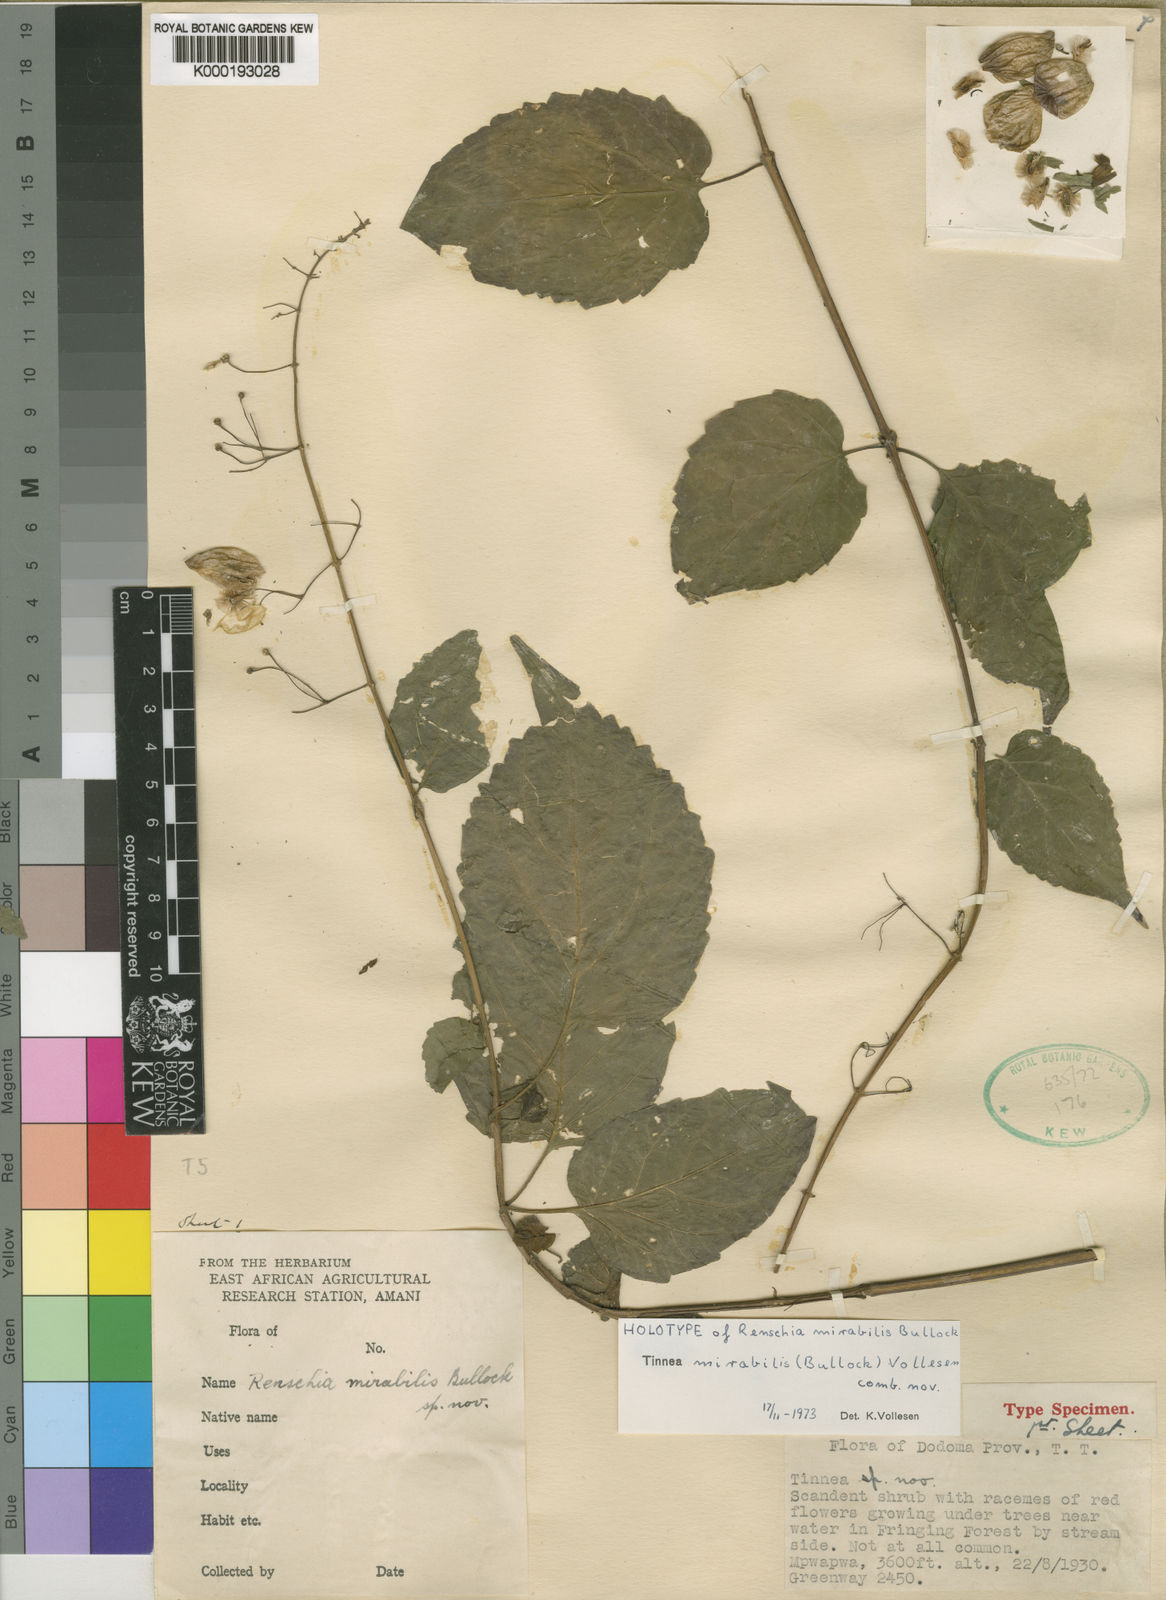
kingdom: Plantae
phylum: Tracheophyta
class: Magnoliopsida
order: Lamiales
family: Lamiaceae
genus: Tinnea
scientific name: Tinnea mirabilis
